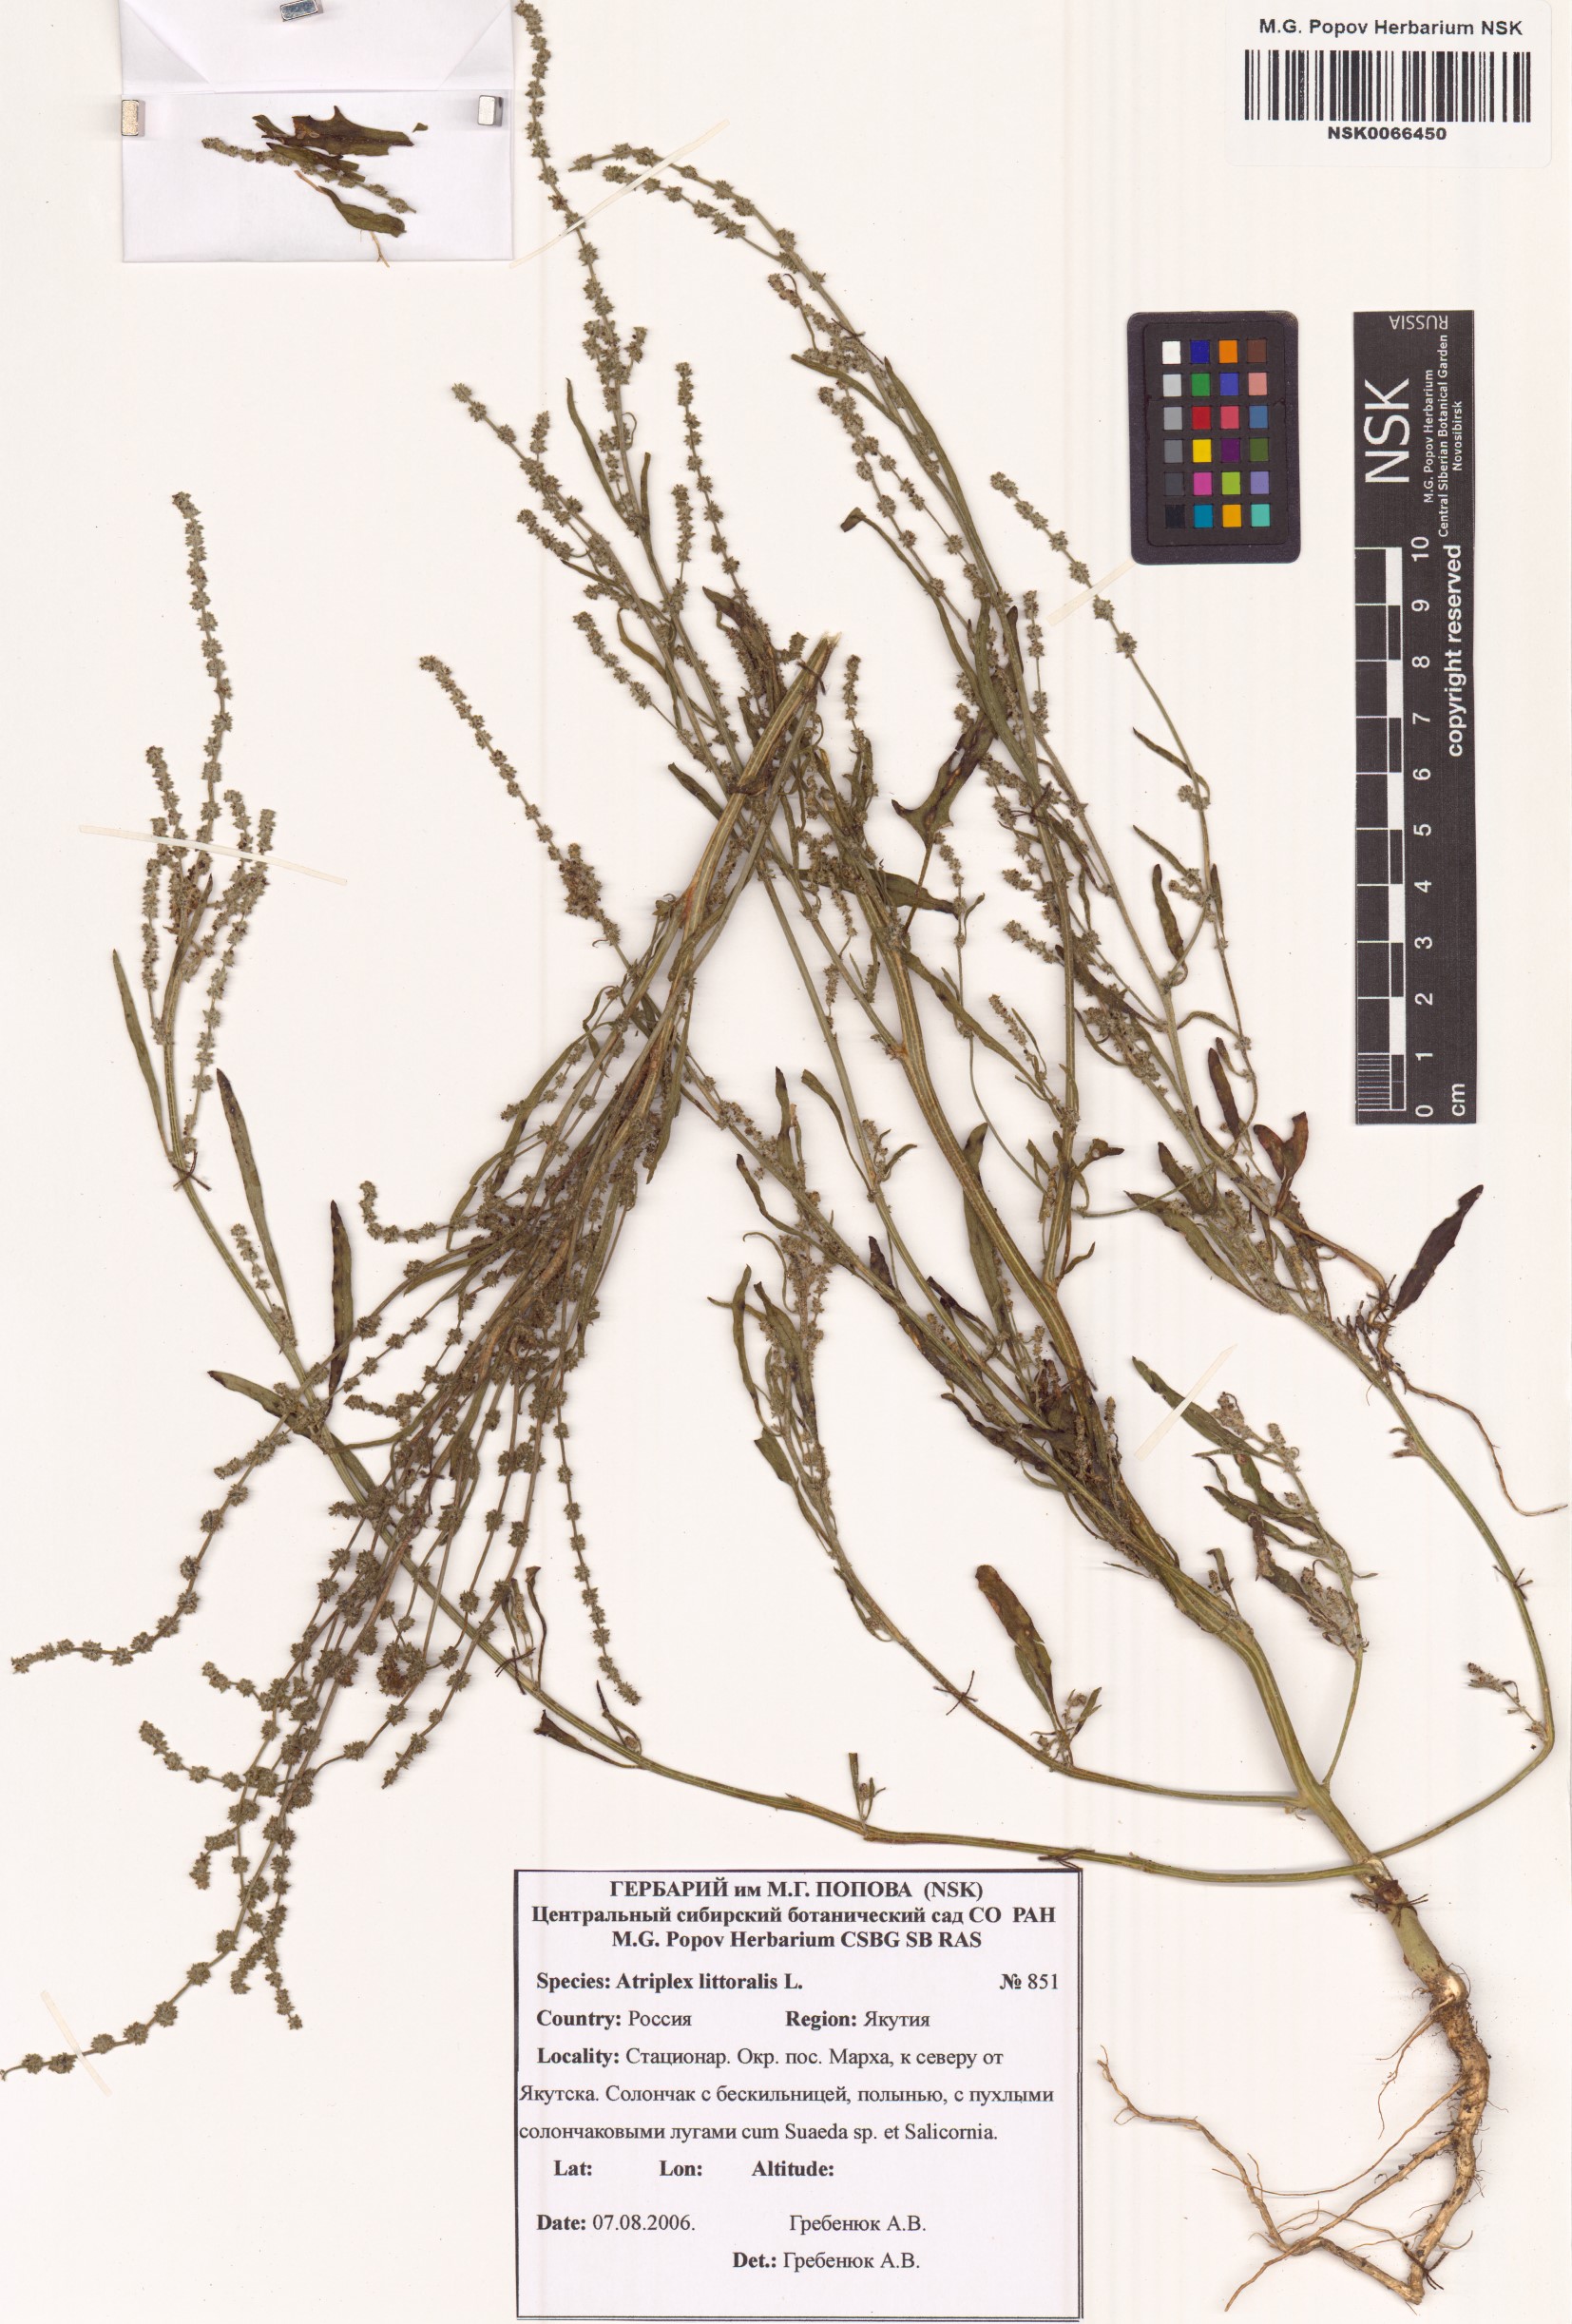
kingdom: Plantae
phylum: Tracheophyta
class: Magnoliopsida
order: Caryophyllales
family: Amaranthaceae
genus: Atriplex
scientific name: Atriplex littoralis
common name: Grass-leaved orache
